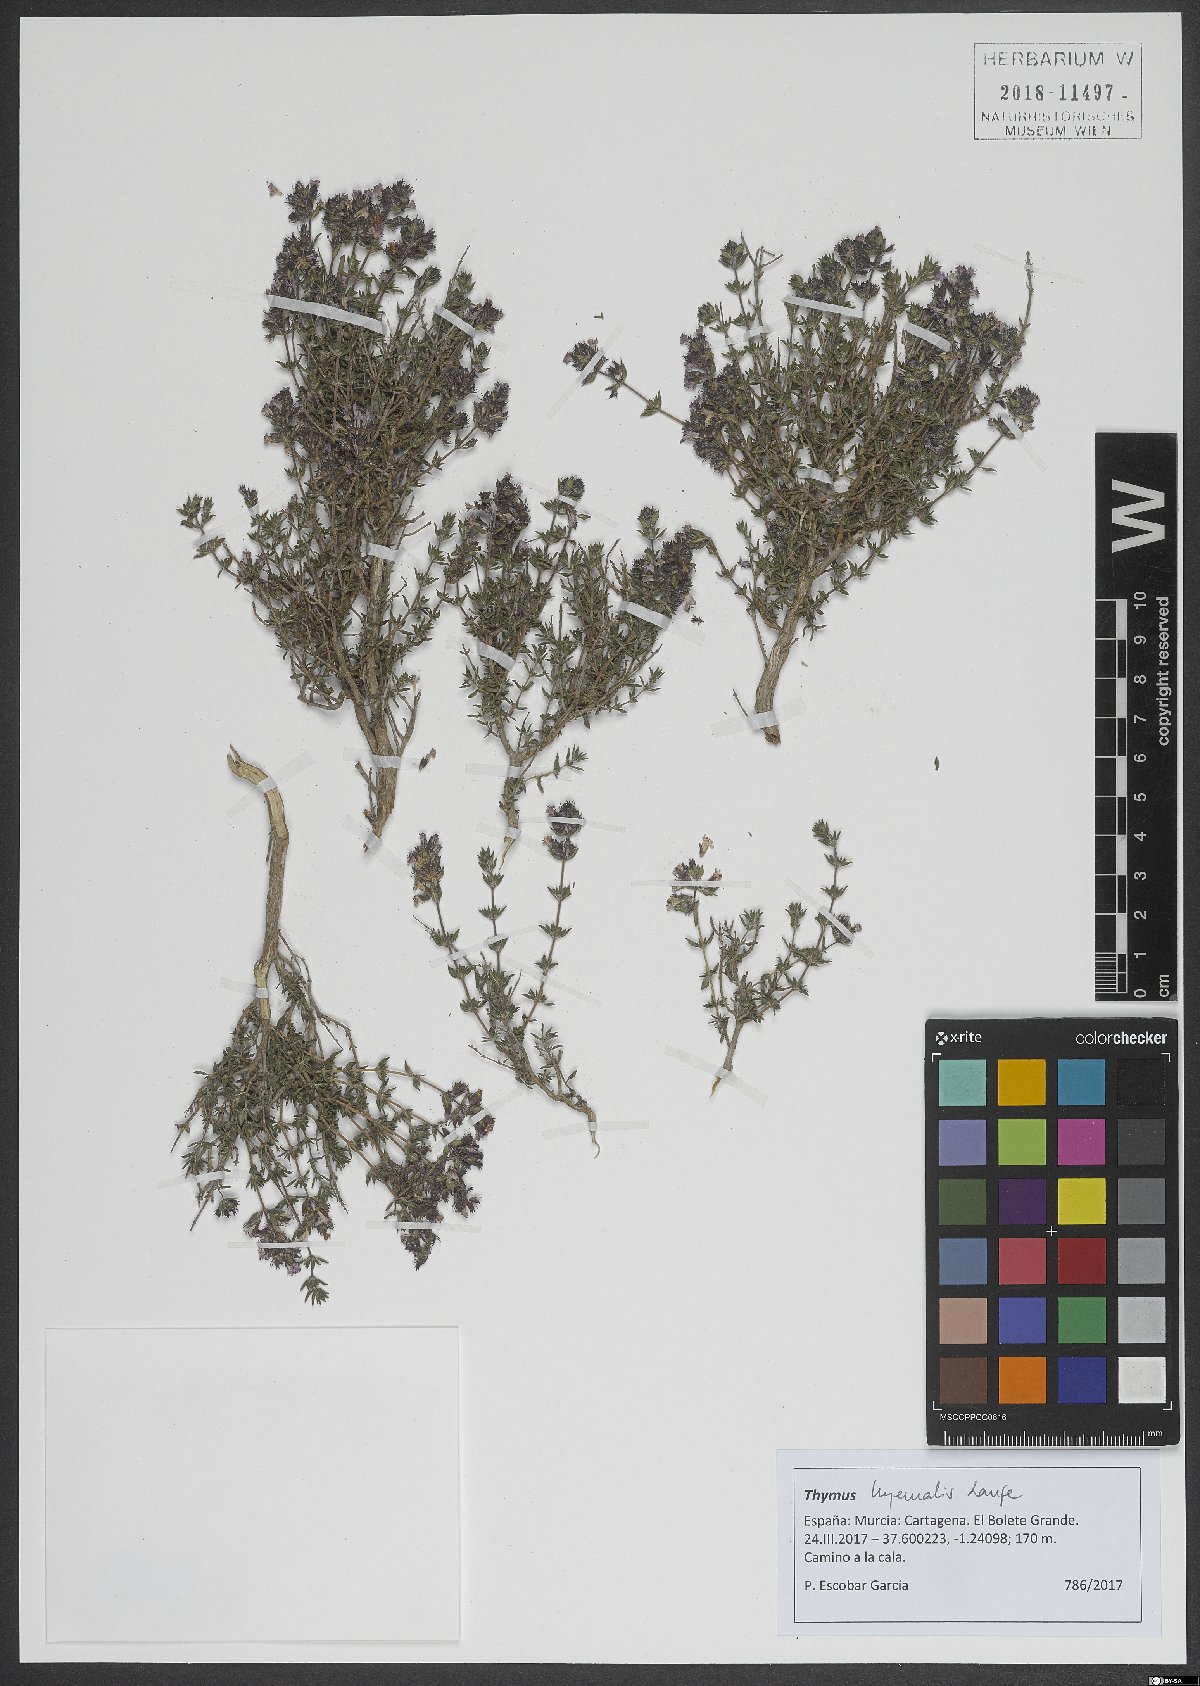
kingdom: Plantae
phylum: Tracheophyta
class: Magnoliopsida
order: Lamiales
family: Lamiaceae
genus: Thymus
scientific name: Thymus hyemalis
